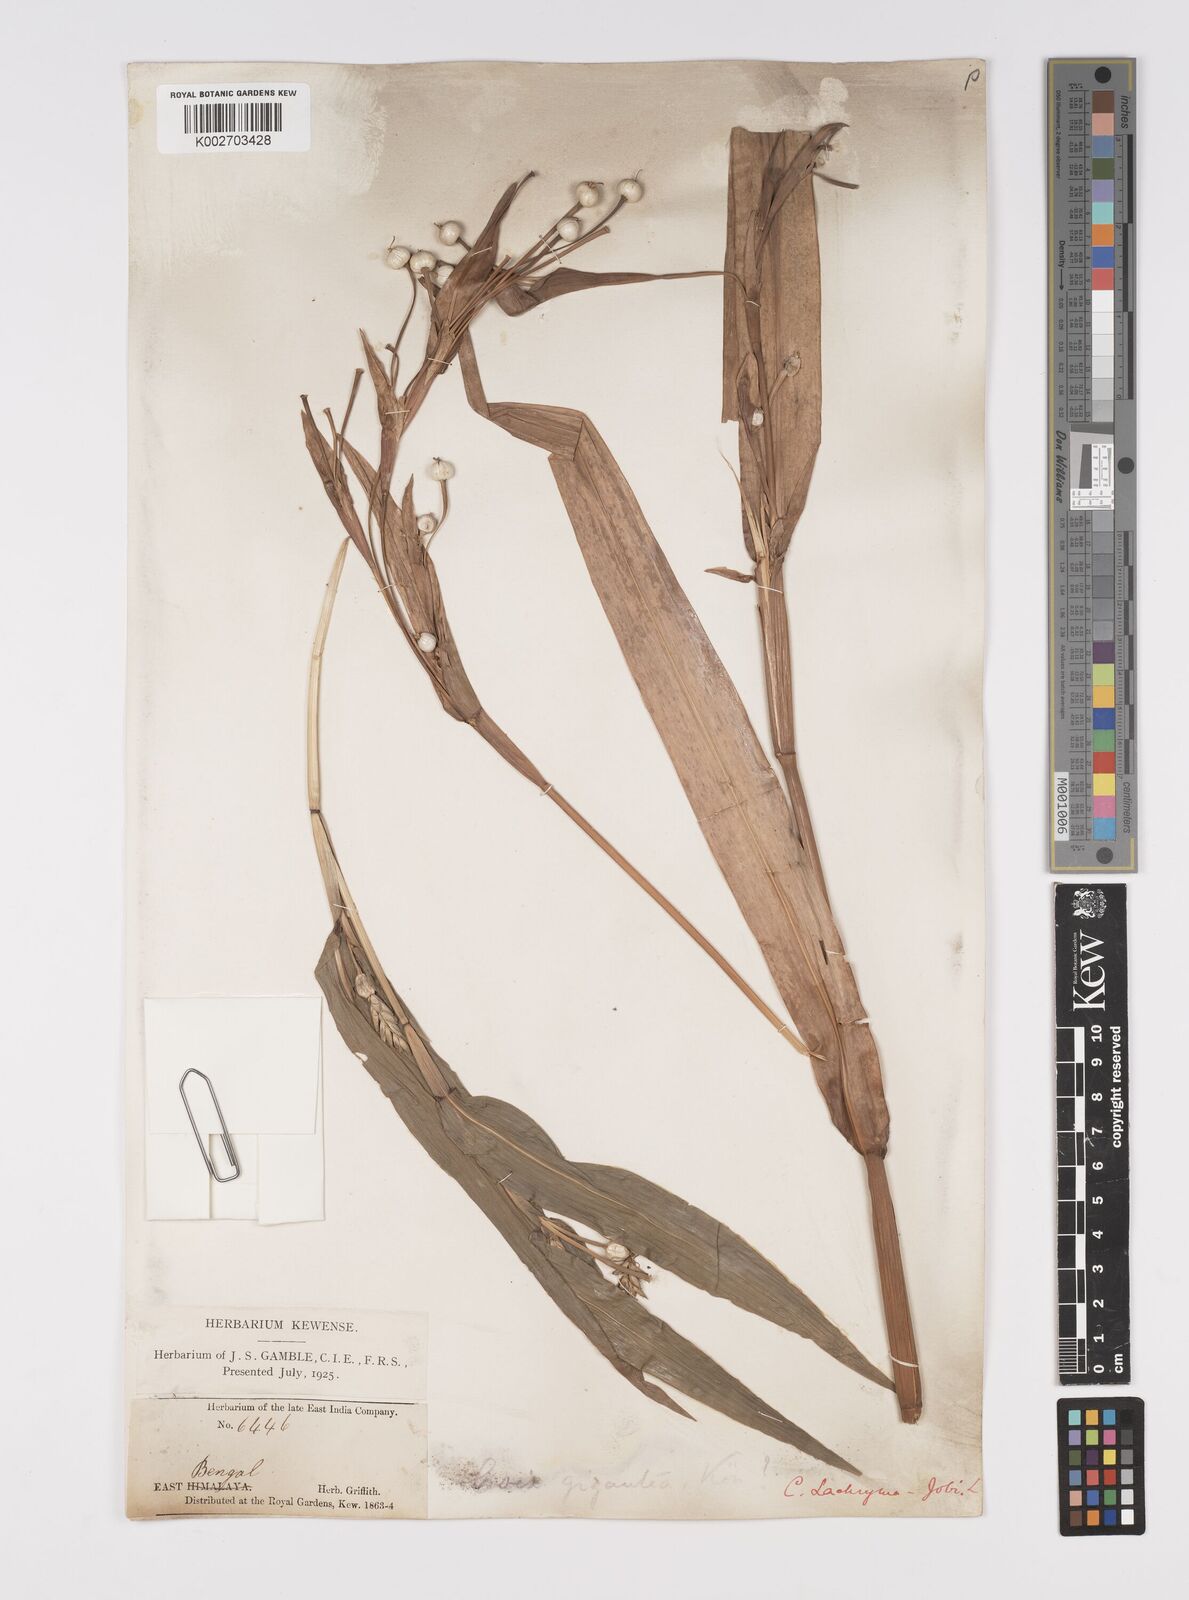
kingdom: Plantae
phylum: Tracheophyta
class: Liliopsida
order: Poales
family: Poaceae
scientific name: Poaceae
